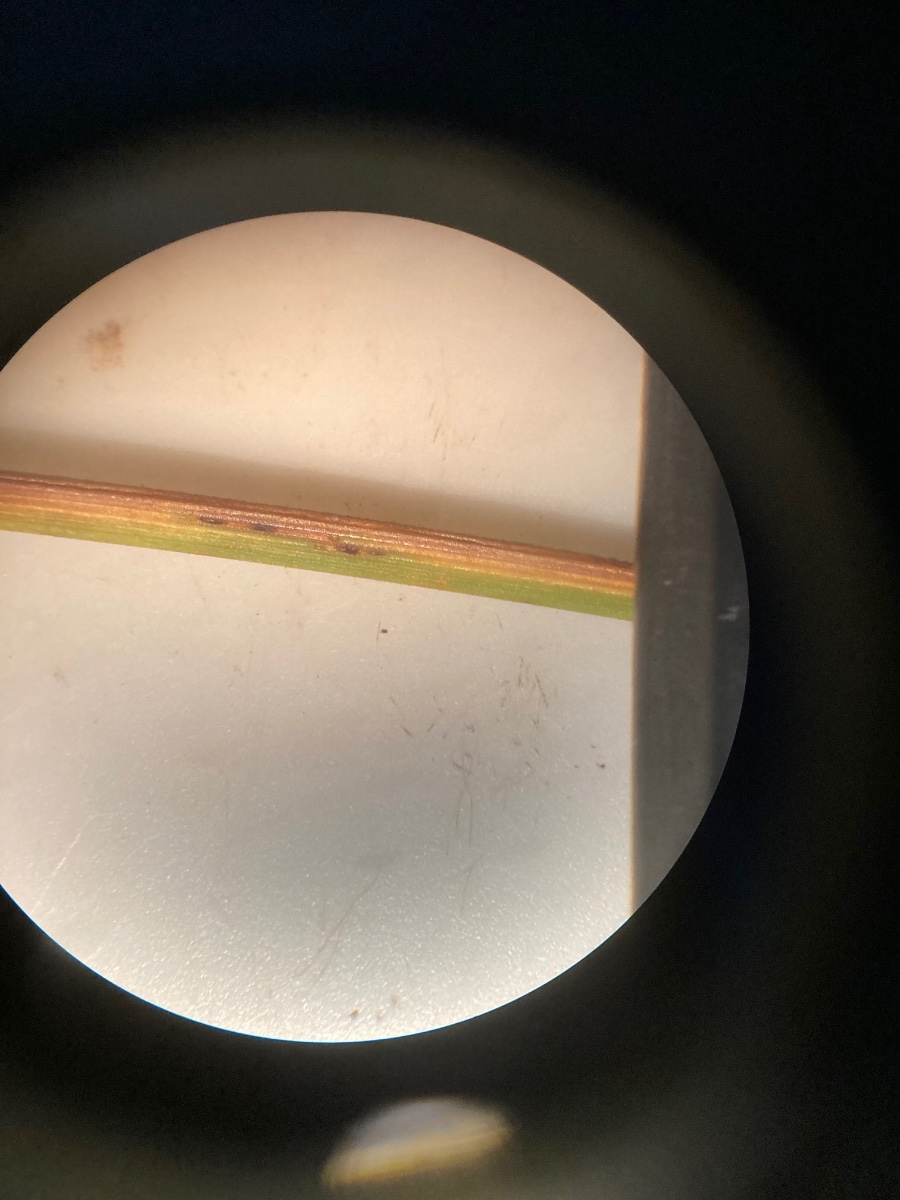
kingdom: Fungi
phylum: Basidiomycota
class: Pucciniomycetes
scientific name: Pucciniomycetes
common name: rustsvampeklassen
